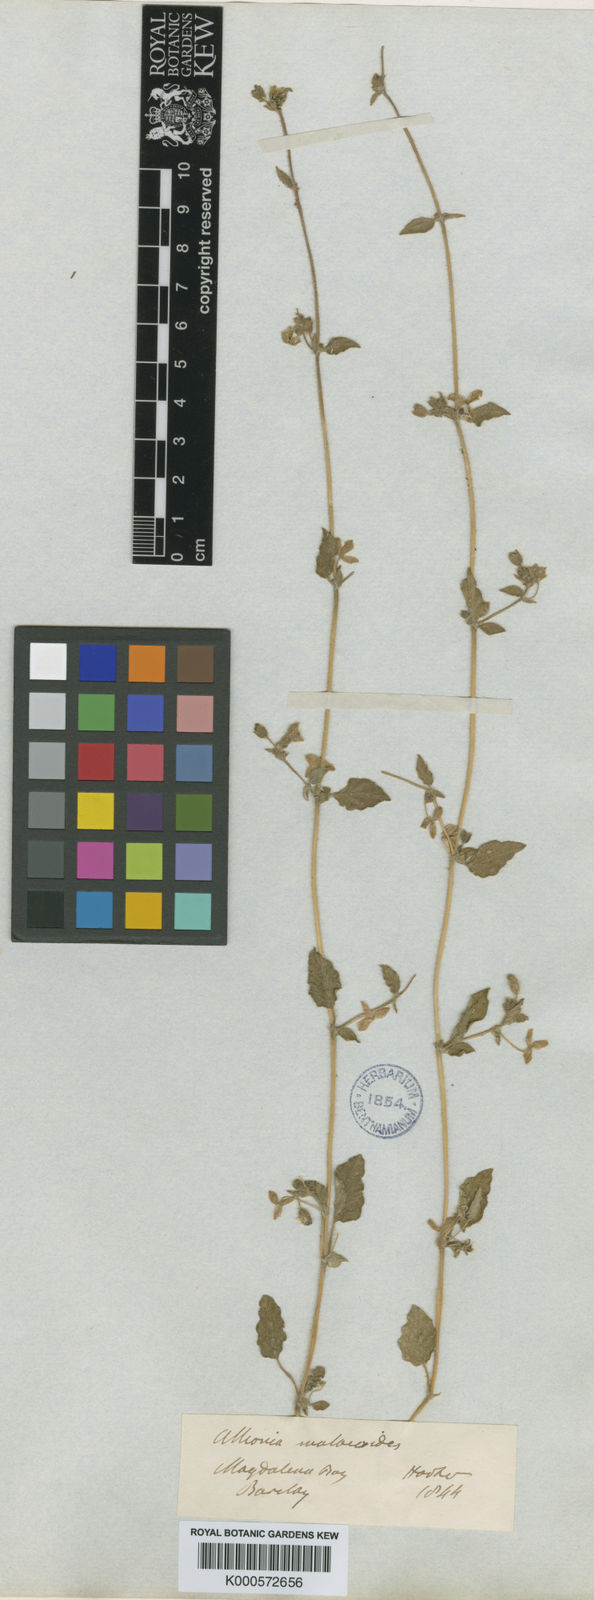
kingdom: Plantae
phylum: Tracheophyta
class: Magnoliopsida
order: Caryophyllales
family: Nyctaginaceae
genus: Allionia
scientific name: Allionia incarnata
